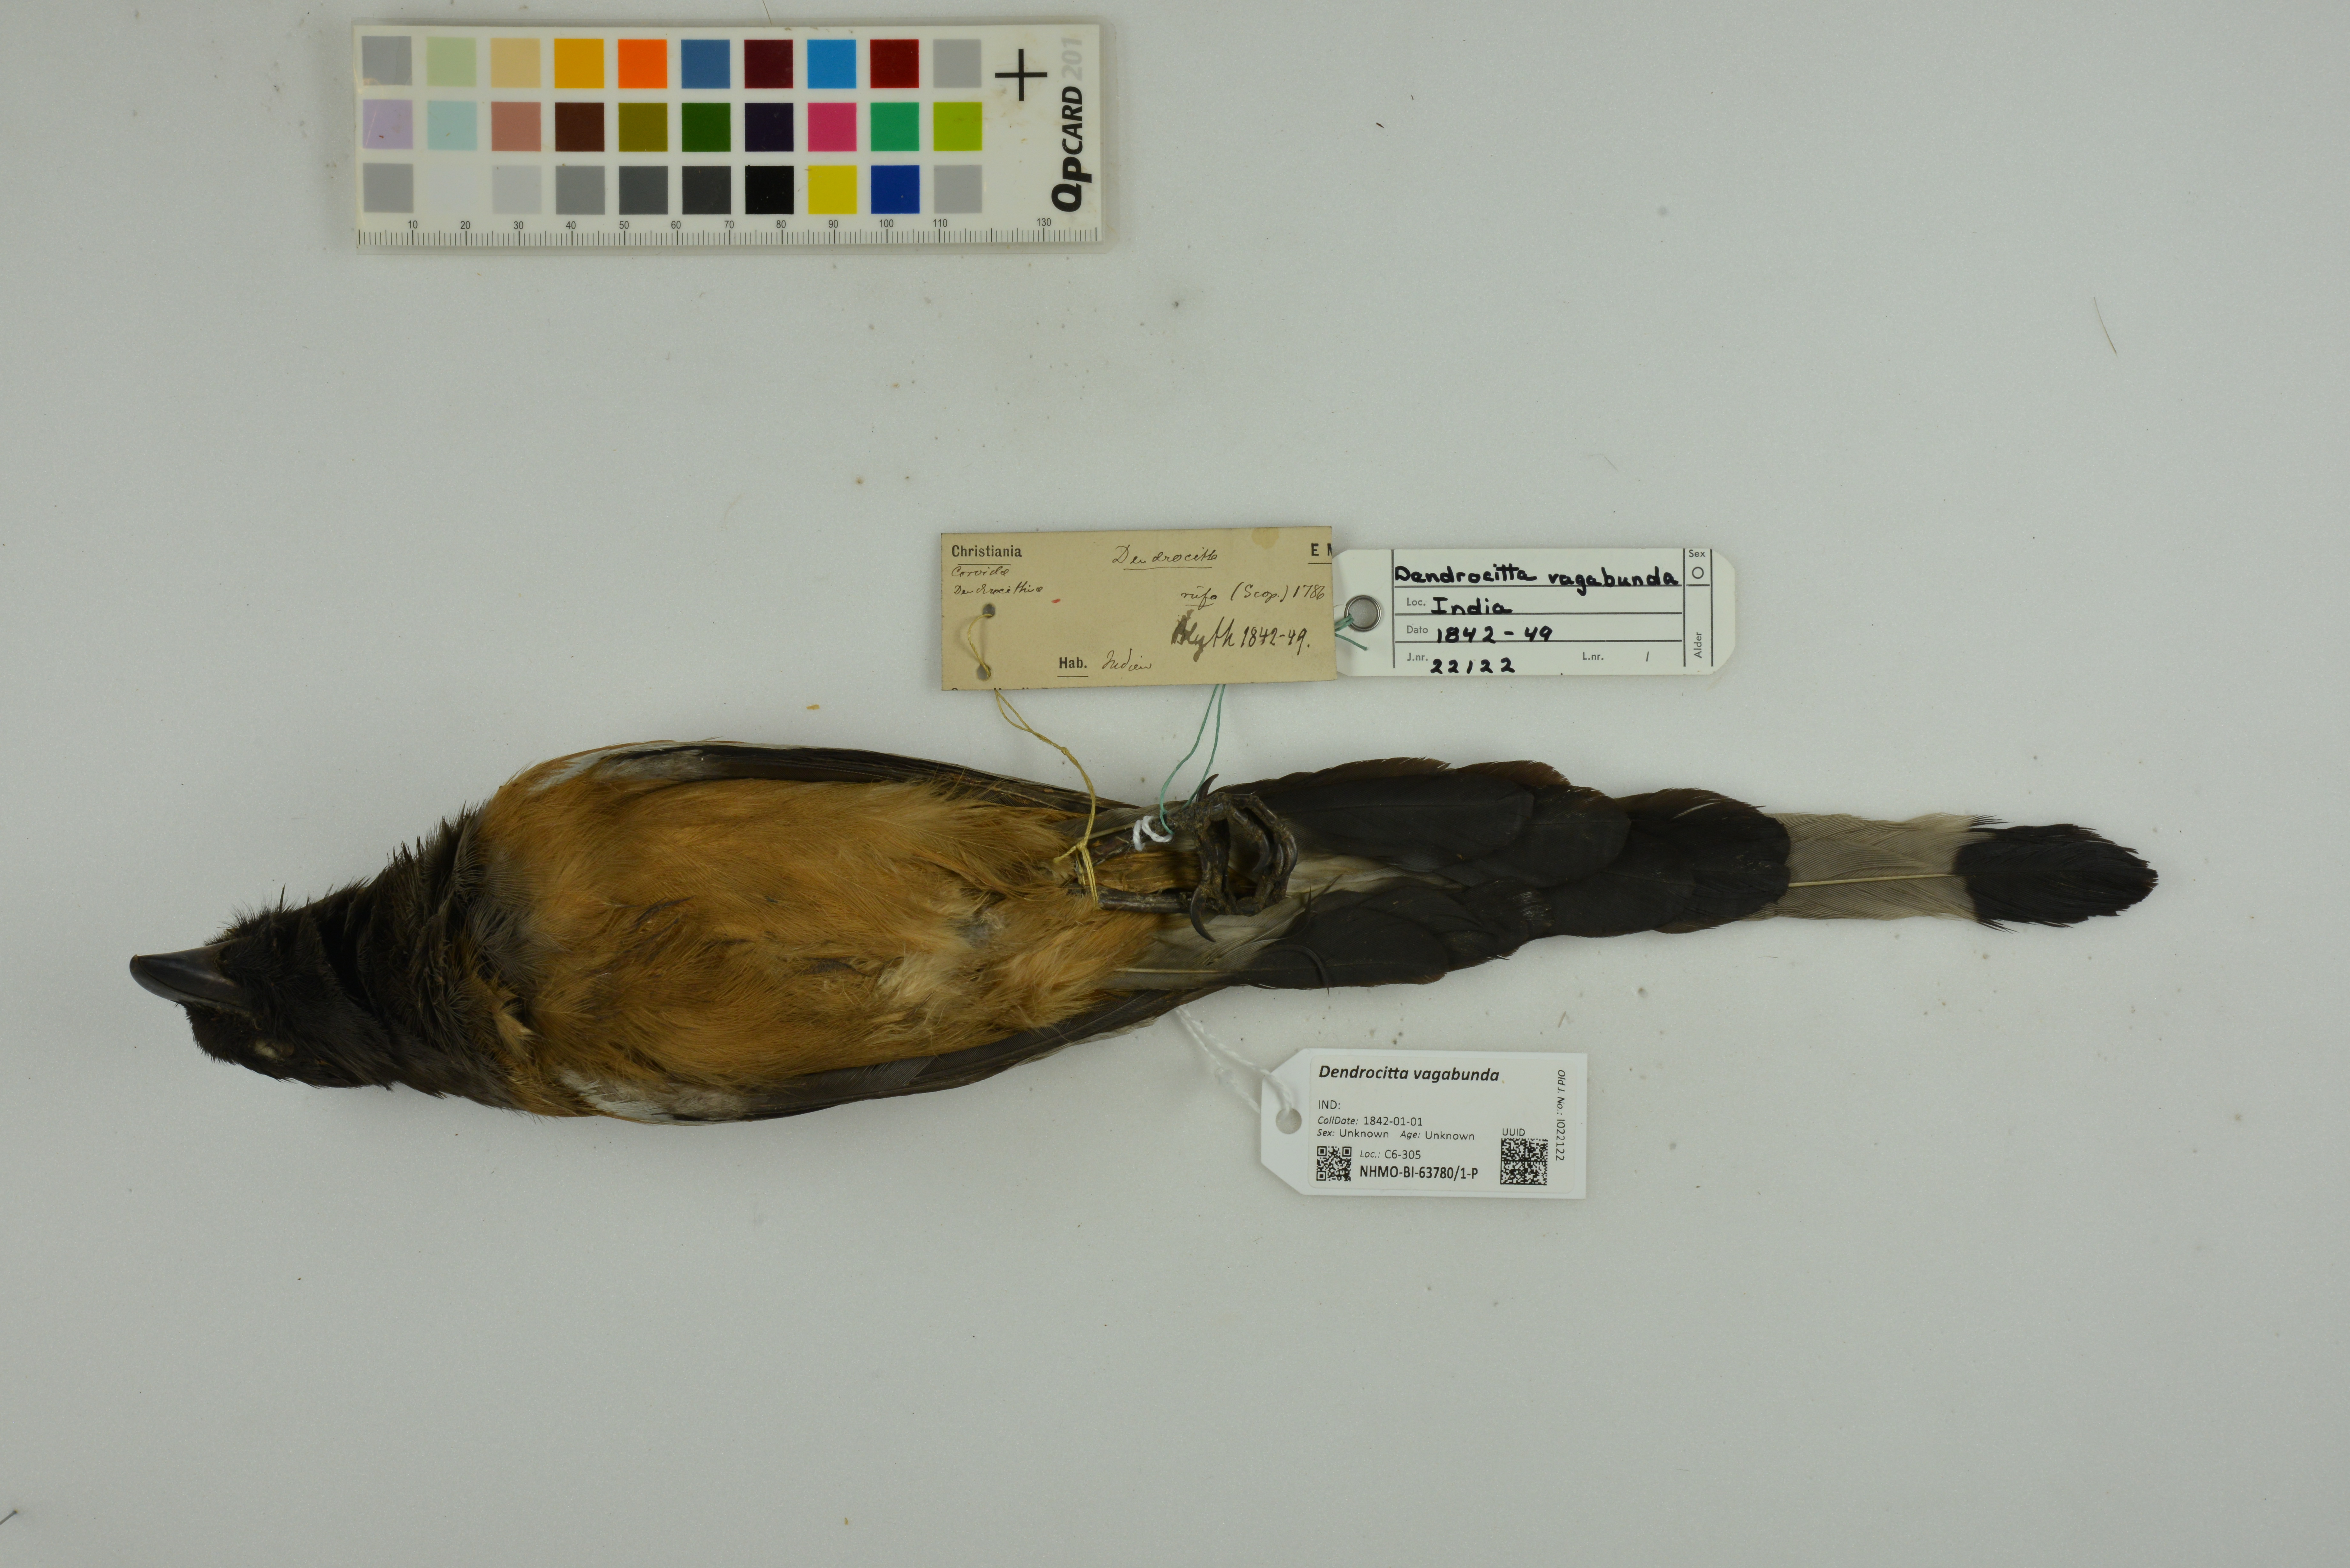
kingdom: Animalia
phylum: Chordata
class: Aves
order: Passeriformes
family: Corvidae
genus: Dendrocitta
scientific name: Dendrocitta vagabunda
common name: Rufous treepie
